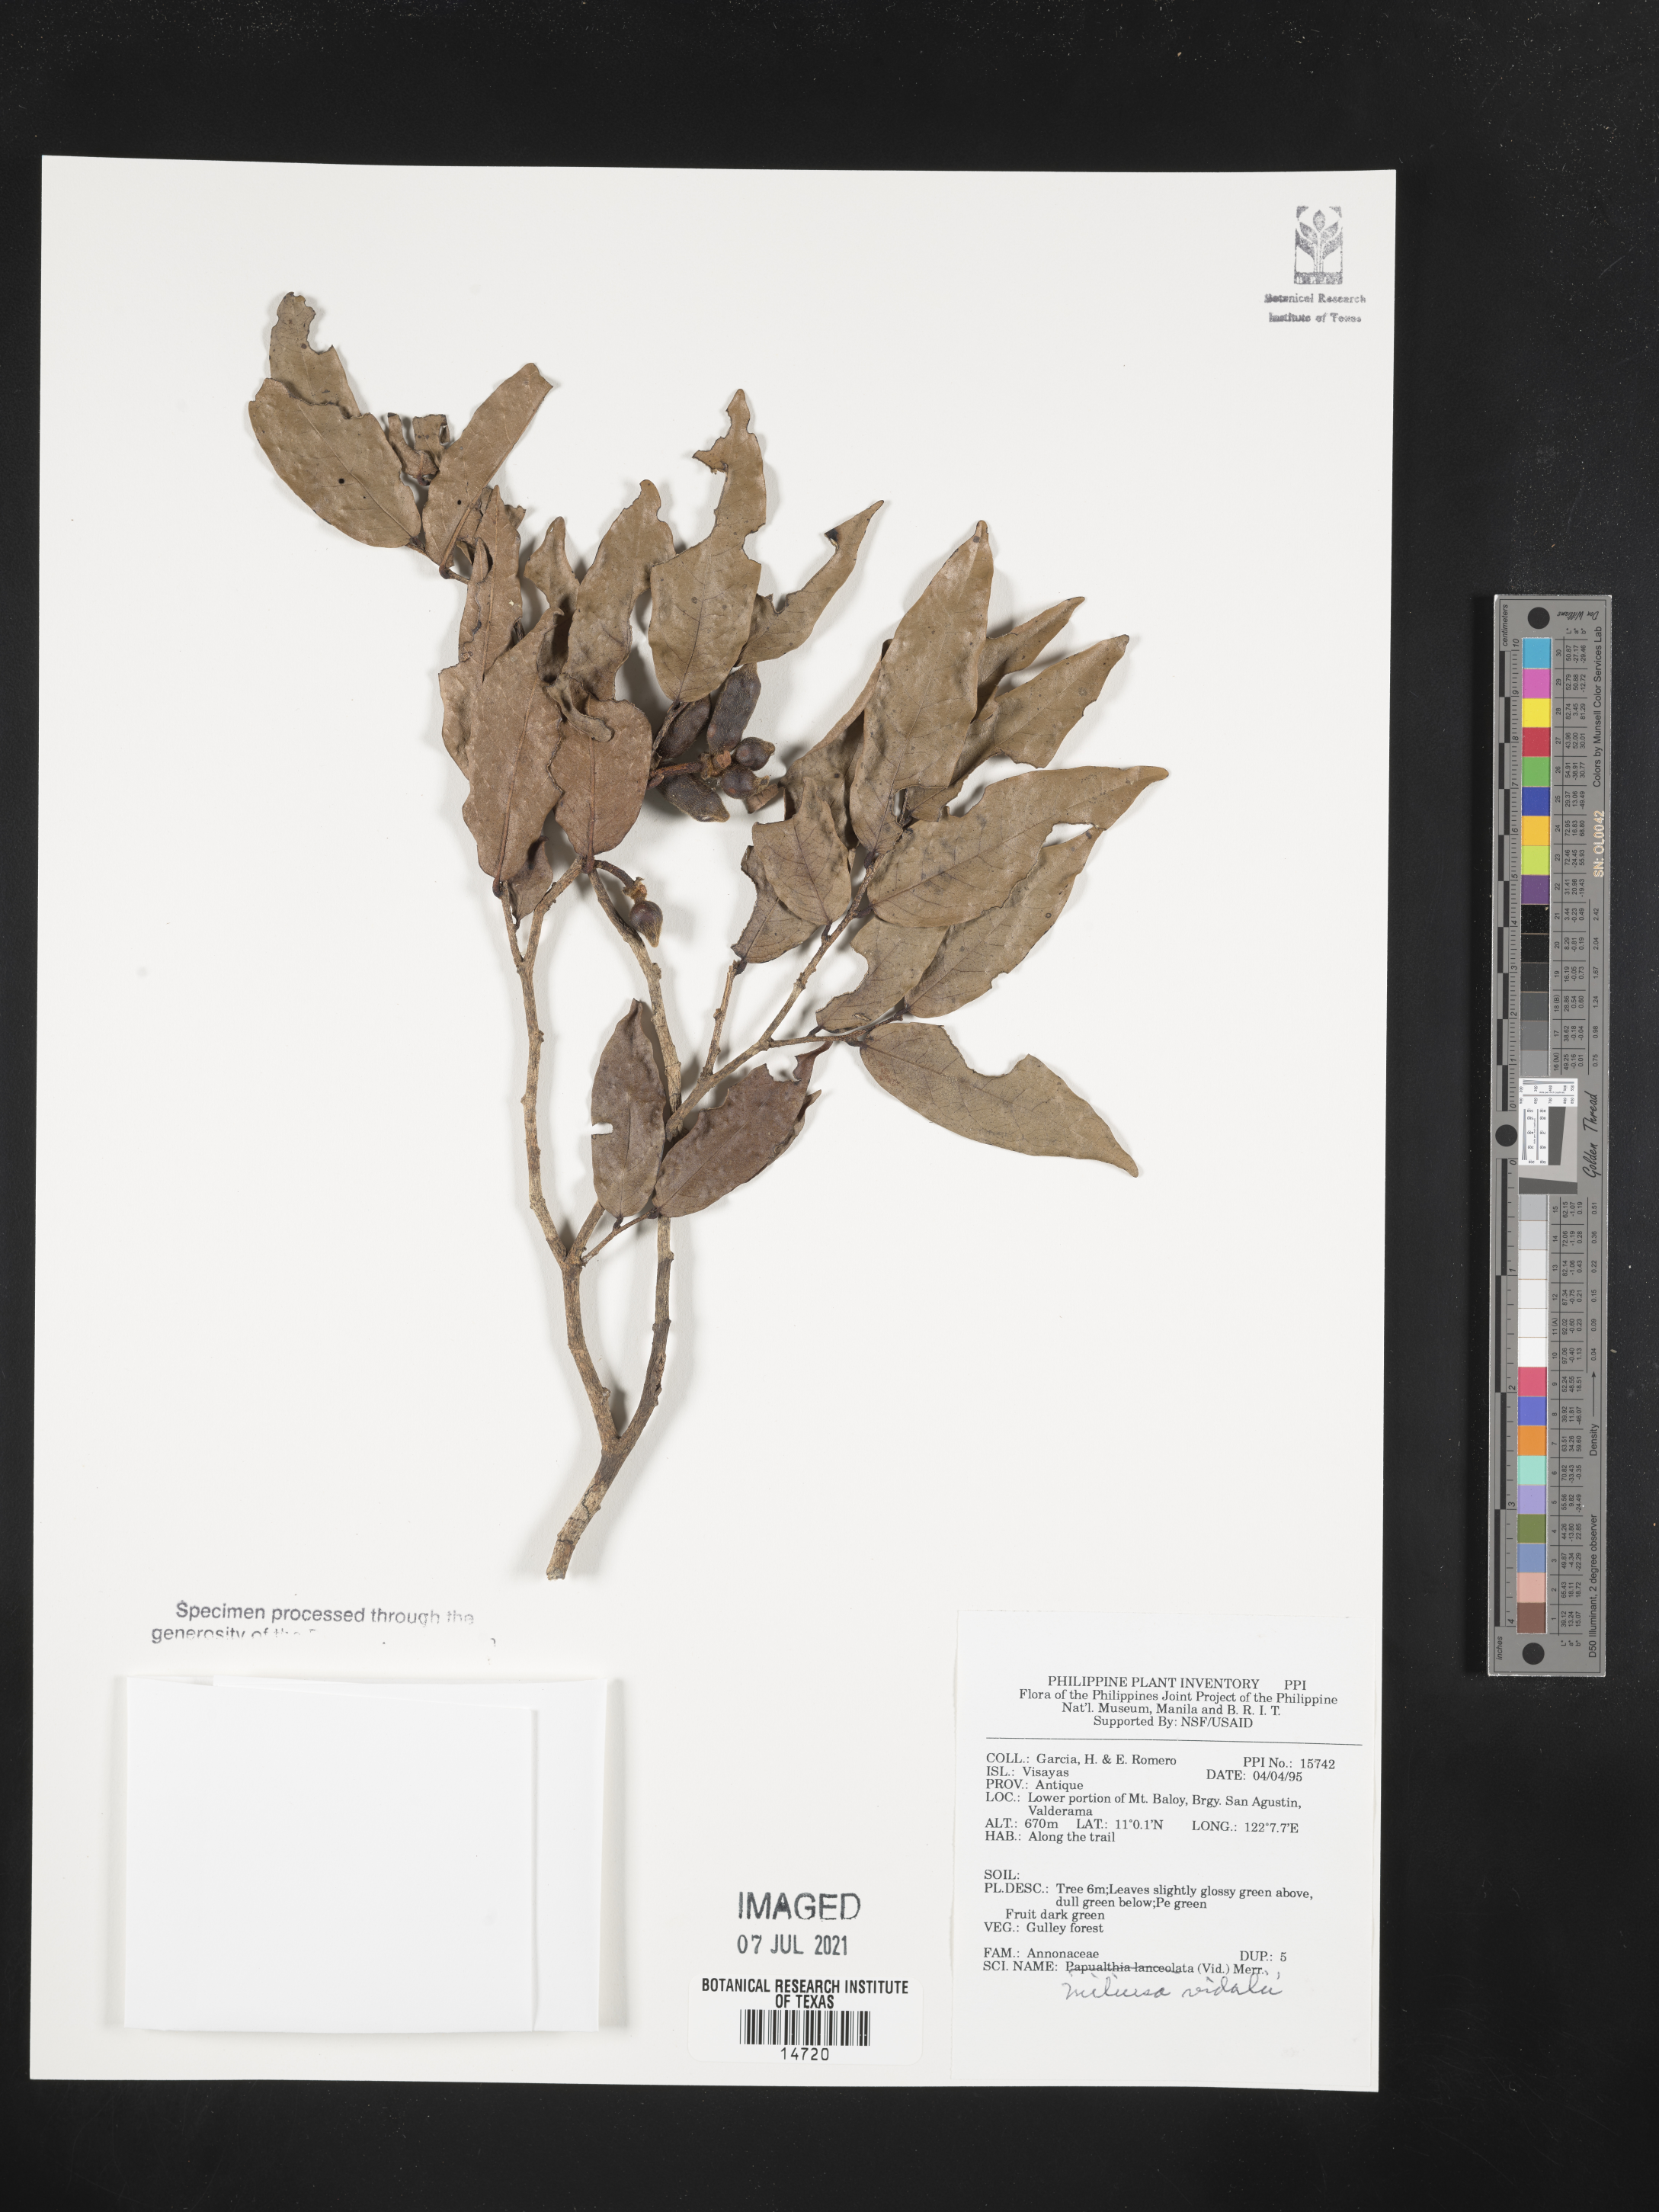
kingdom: Plantae
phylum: Tracheophyta
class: Magnoliopsida
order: Magnoliales
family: Annonaceae
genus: Miliusa
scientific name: Miliusa vidalii
